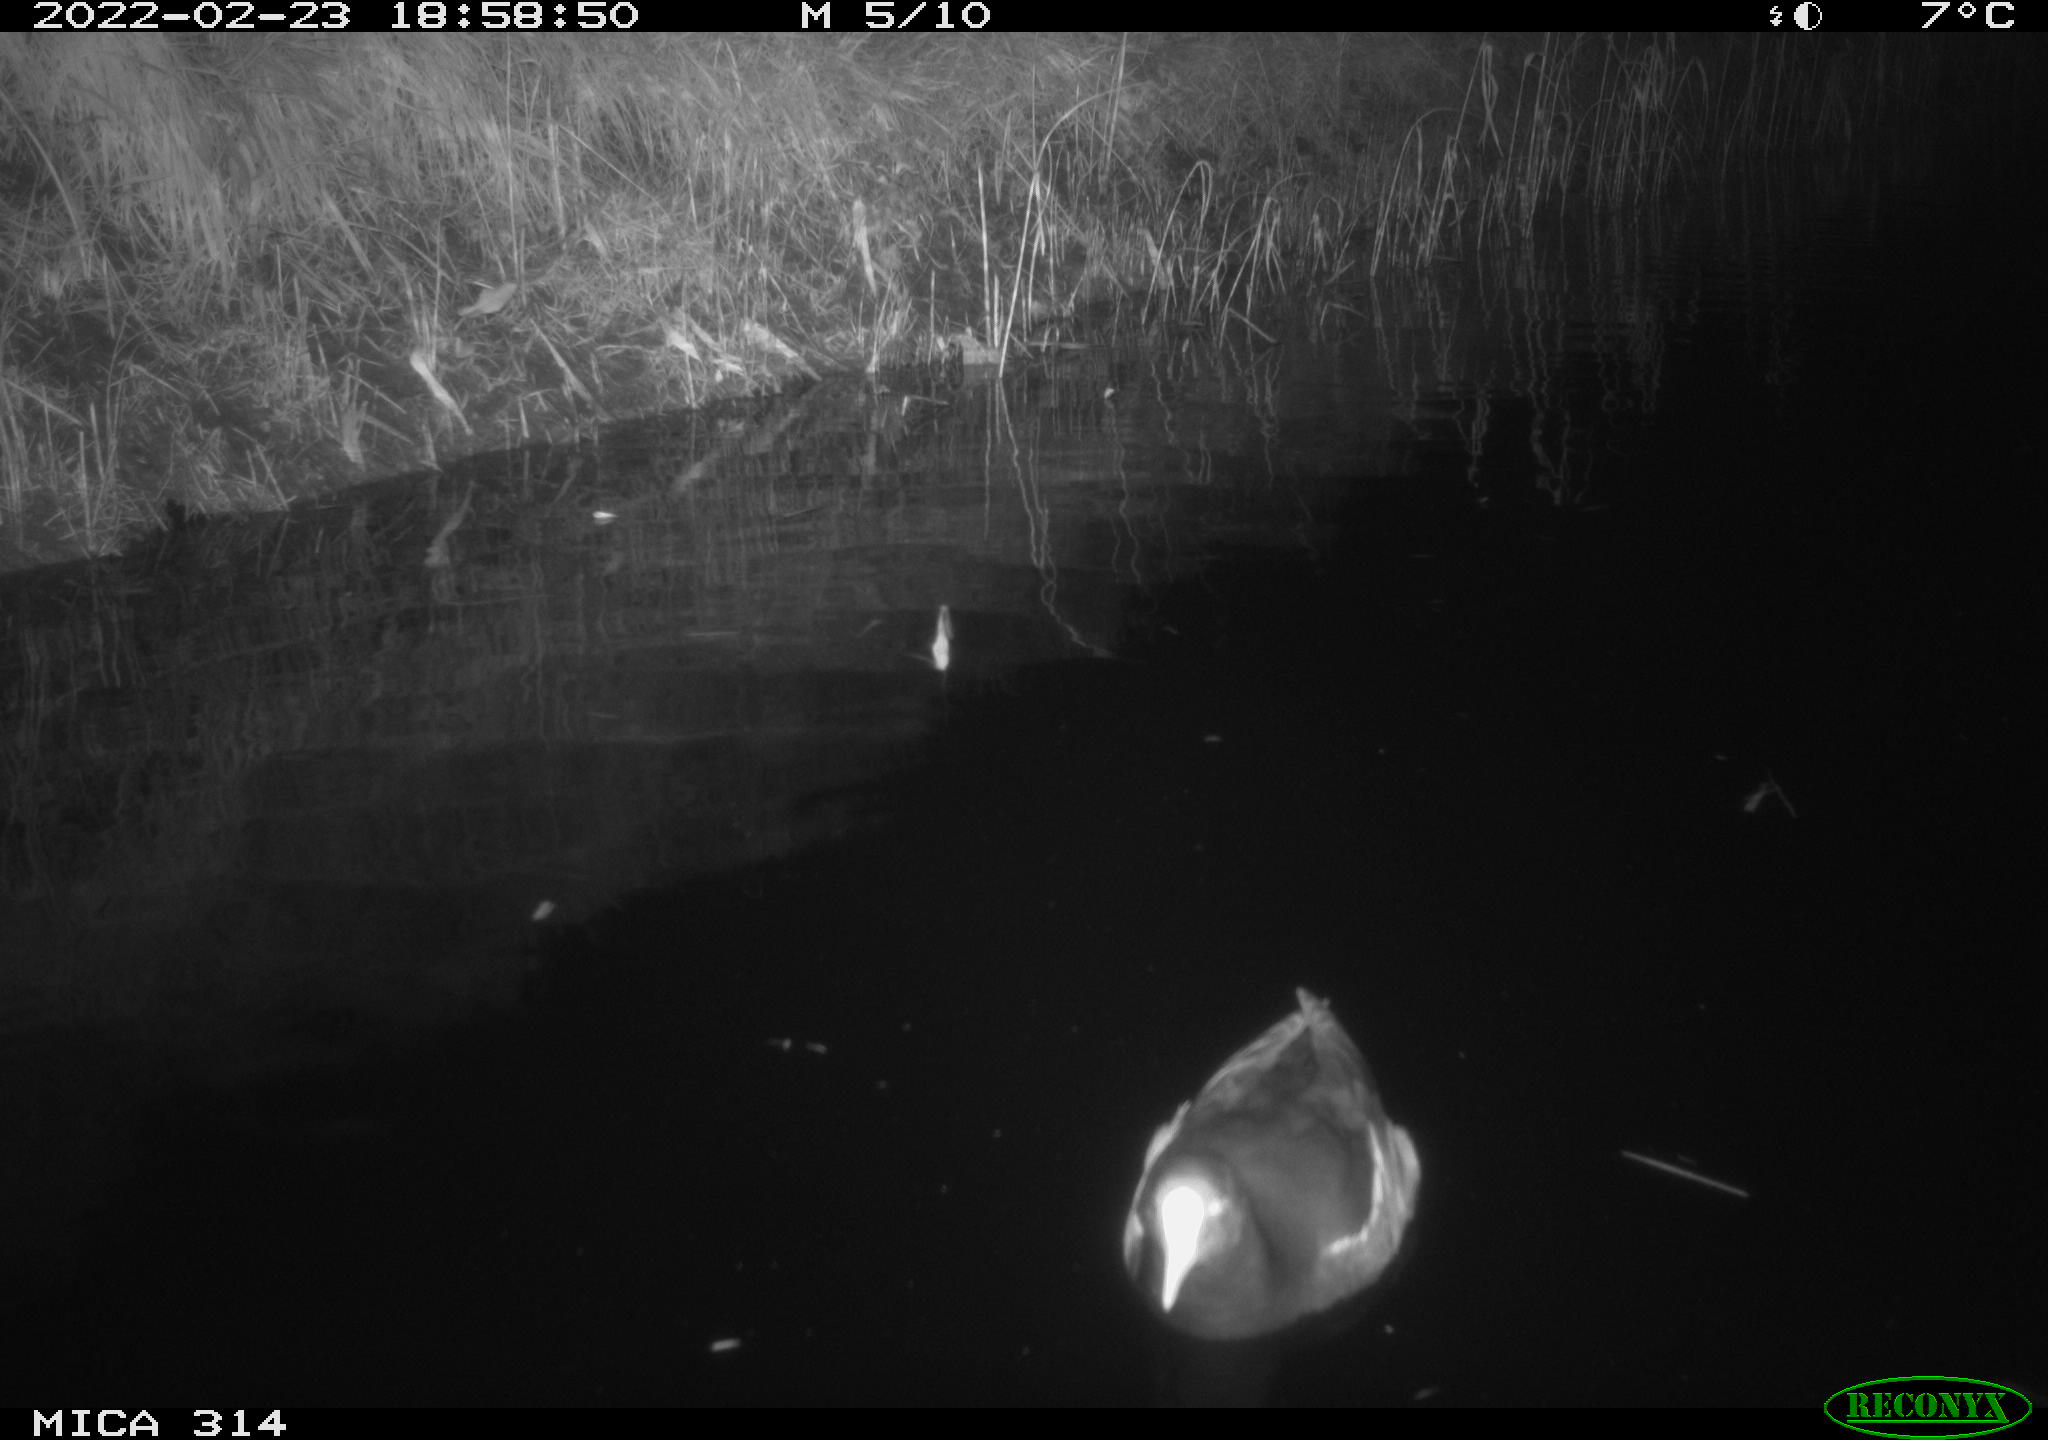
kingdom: Animalia
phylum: Chordata
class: Aves
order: Gruiformes
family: Rallidae
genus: Gallinula
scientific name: Gallinula chloropus
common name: Common moorhen
